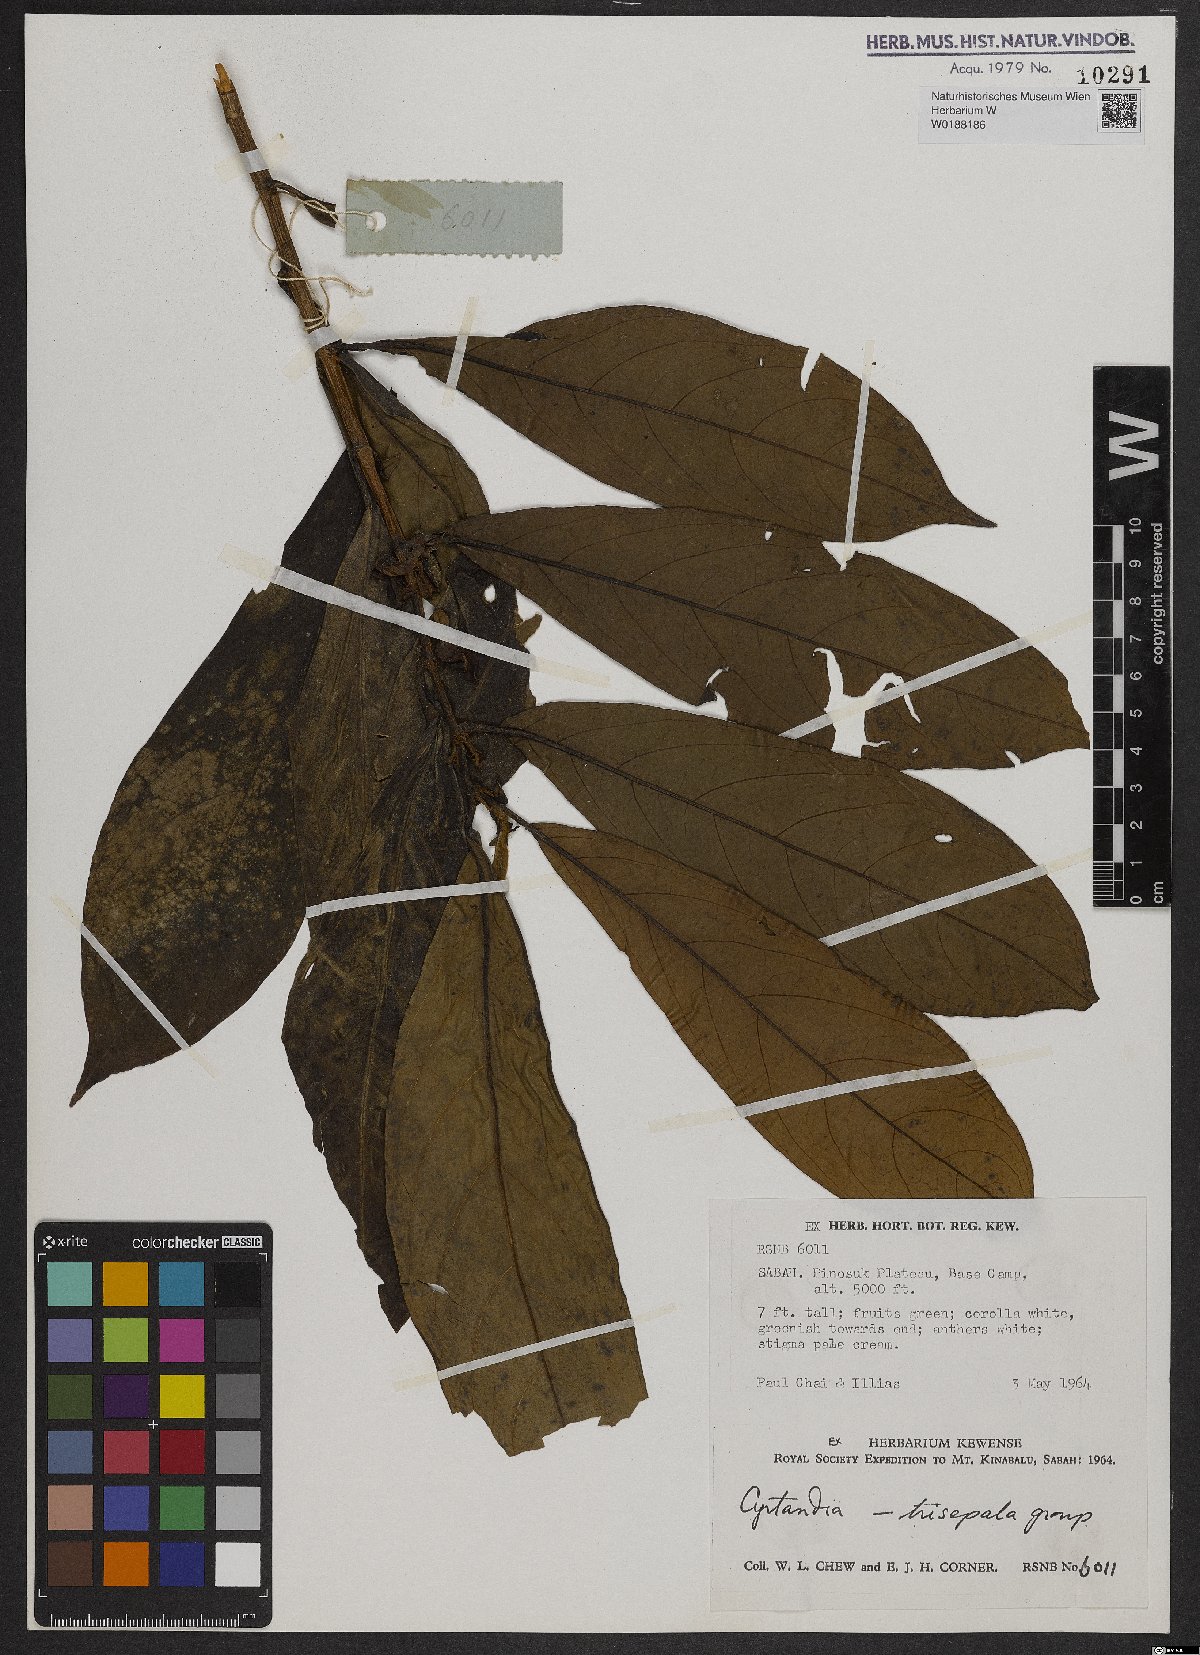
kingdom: Plantae
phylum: Tracheophyta
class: Magnoliopsida
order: Lamiales
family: Gesneriaceae
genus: Cyrtandra
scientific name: Cyrtandra
